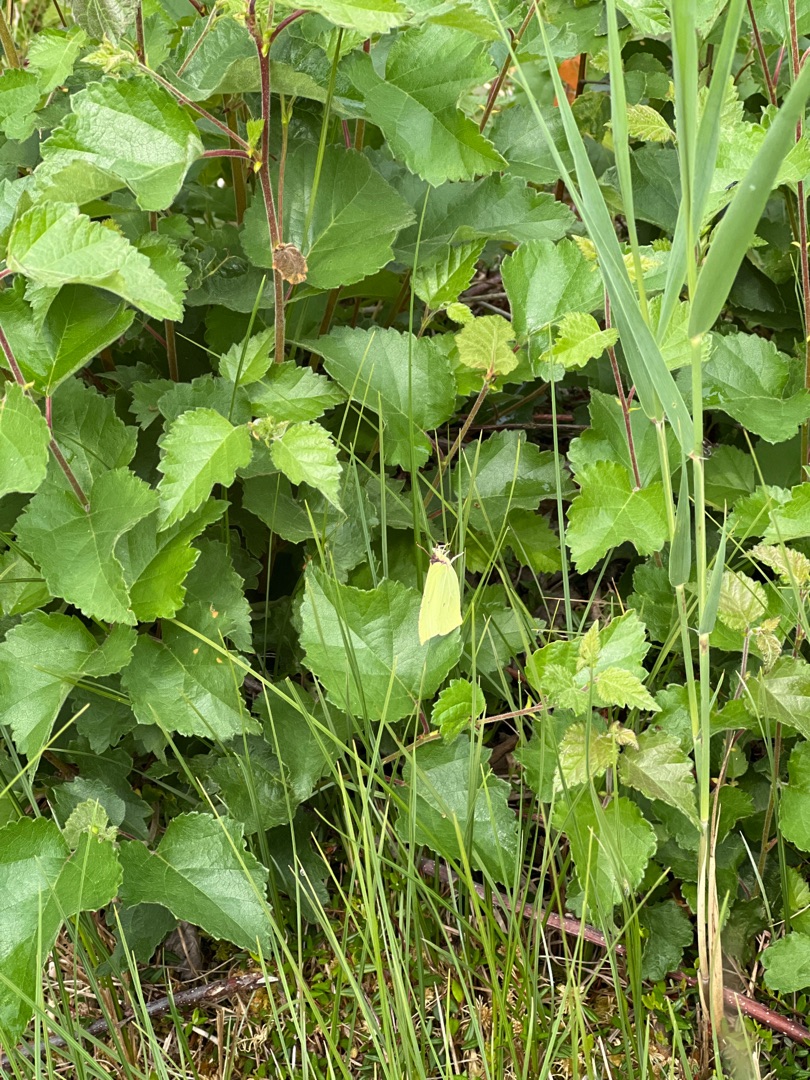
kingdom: Animalia
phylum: Arthropoda
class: Insecta
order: Lepidoptera
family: Pieridae
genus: Gonepteryx
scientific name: Gonepteryx rhamni
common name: Citronsommerfugl
